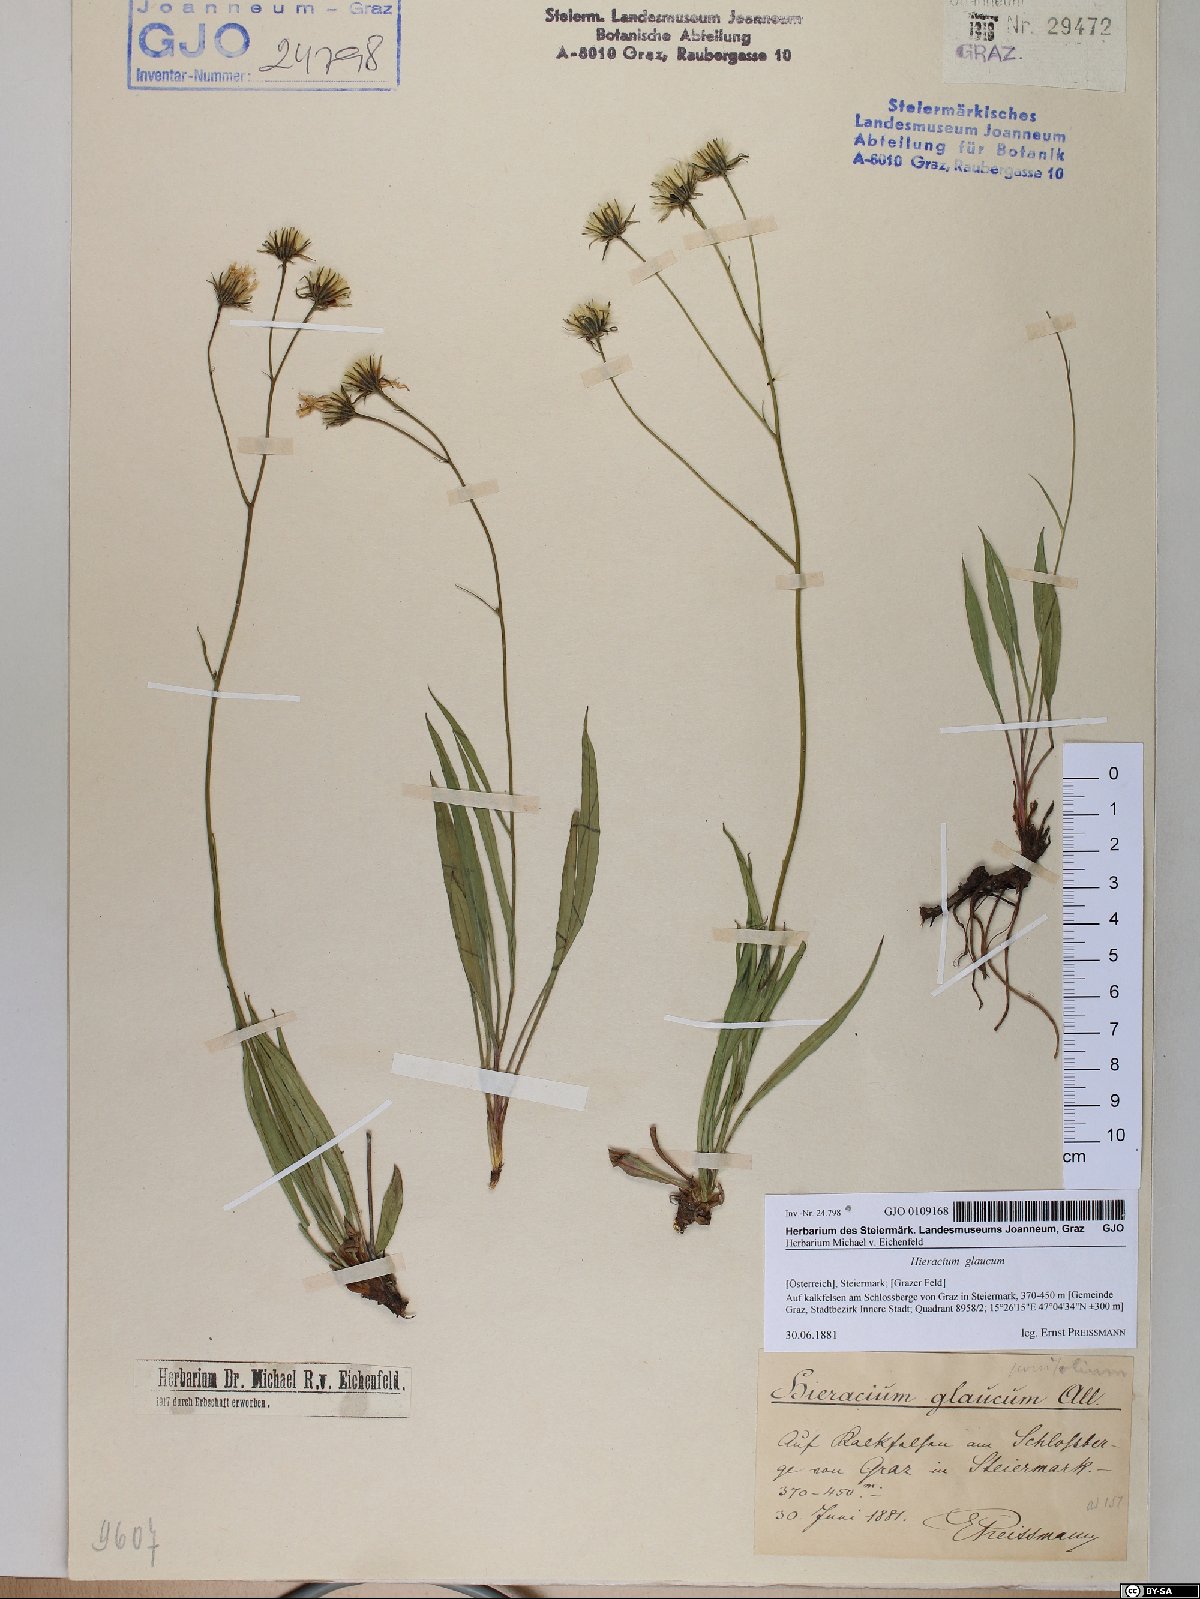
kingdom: Plantae
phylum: Tracheophyta
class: Magnoliopsida
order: Asterales
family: Asteraceae
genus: Hieracium
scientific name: Hieracium glaucum
